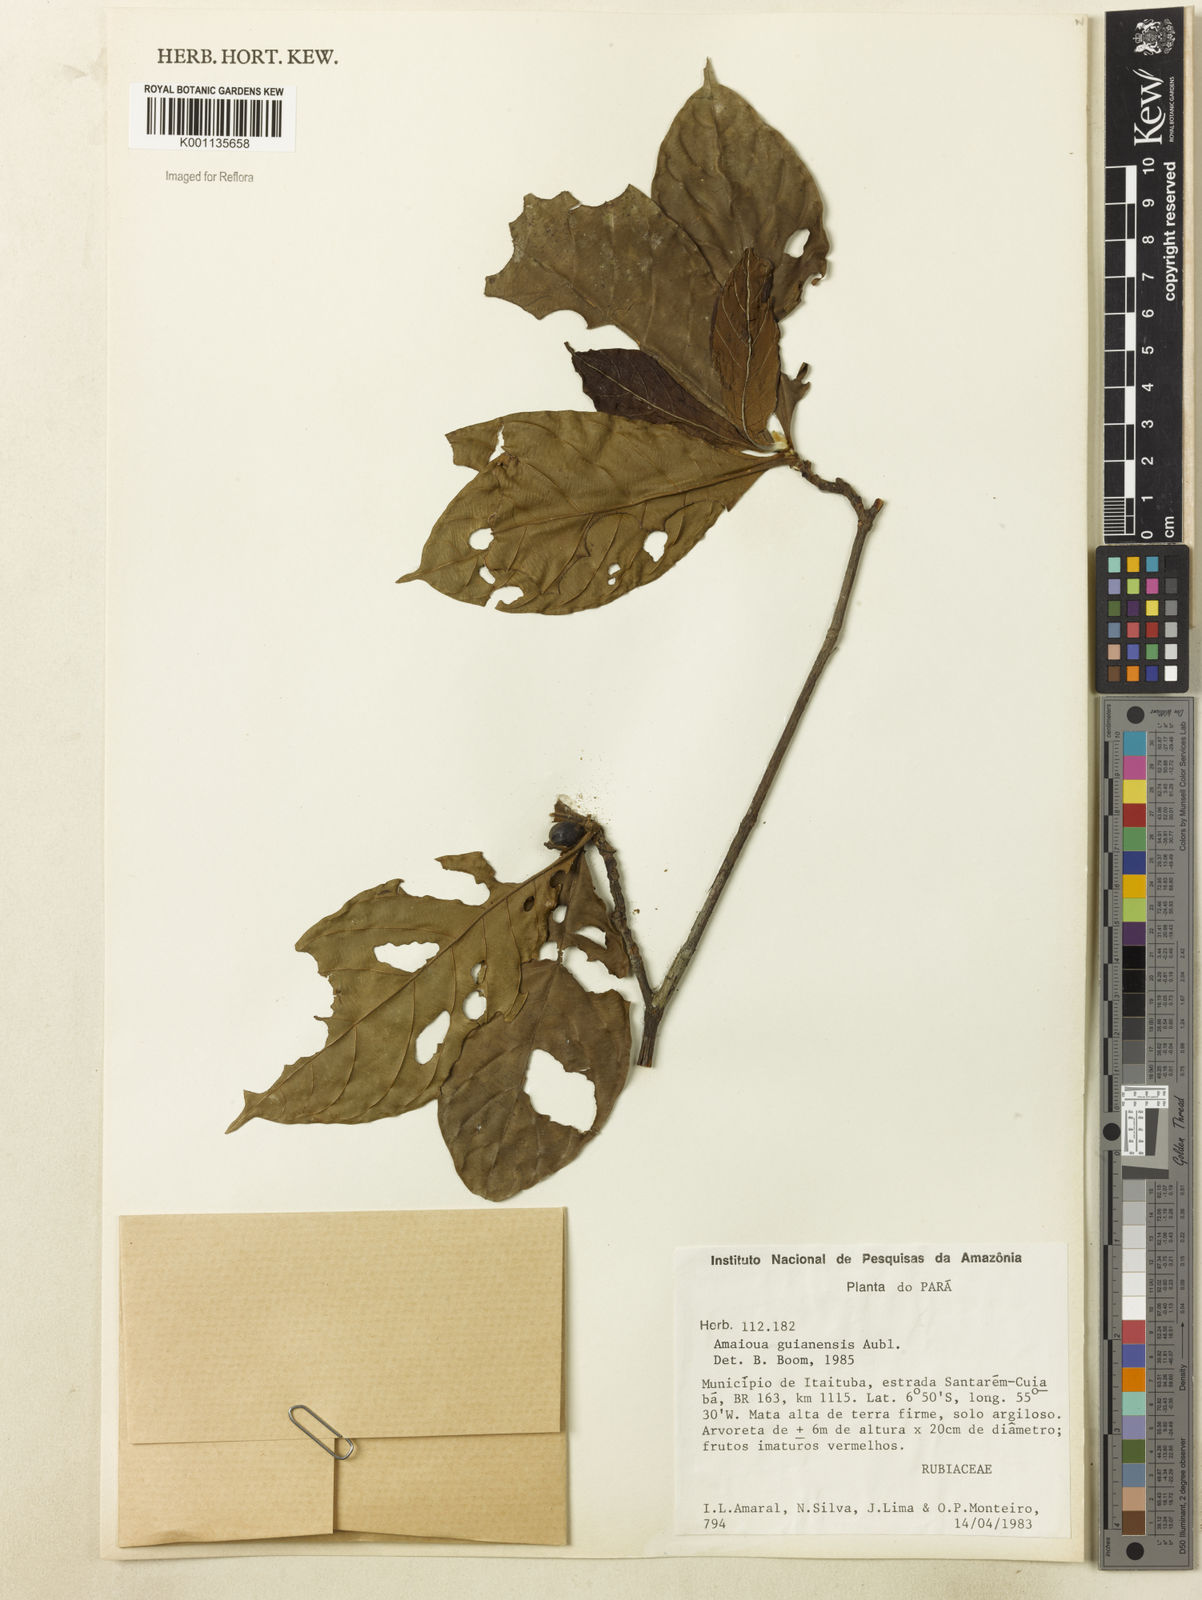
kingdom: Plantae
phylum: Tracheophyta
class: Magnoliopsida
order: Gentianales
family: Rubiaceae
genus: Amaioua
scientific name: Amaioua guianensis
